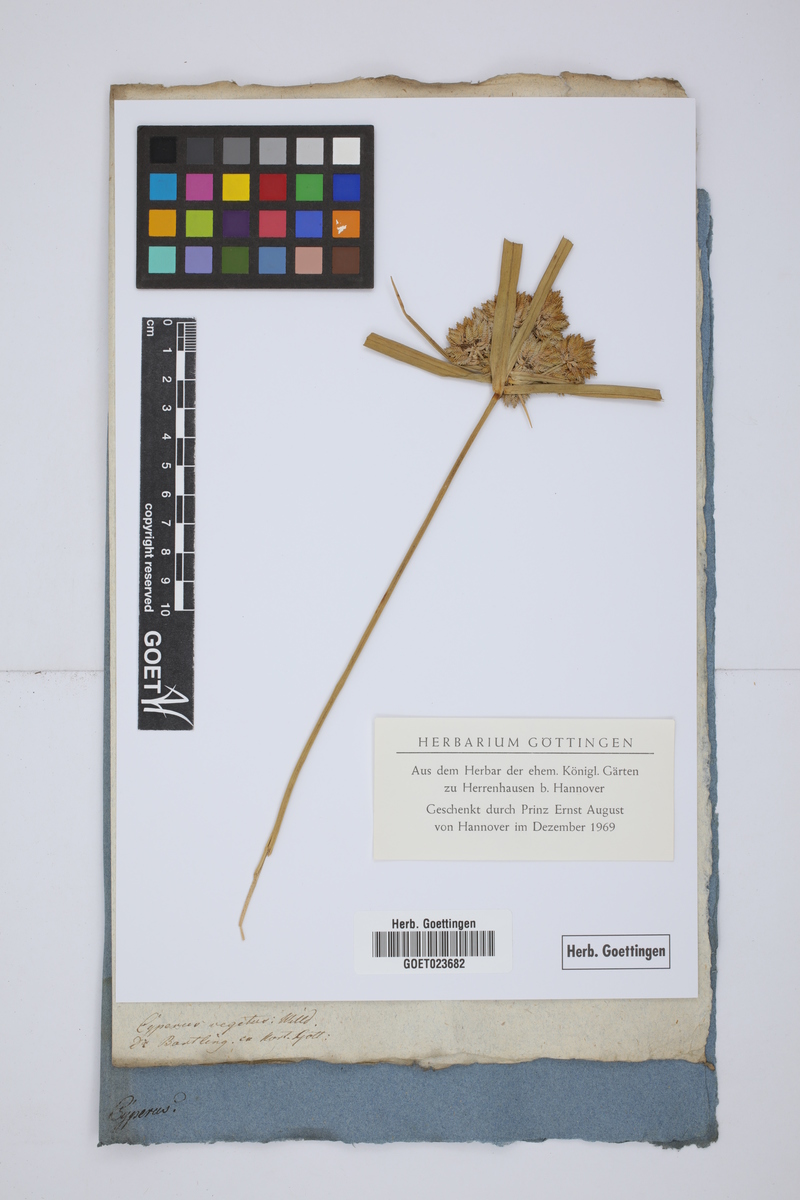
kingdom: Plantae
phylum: Tracheophyta
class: Liliopsida
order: Poales
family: Cyperaceae
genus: Cyperus
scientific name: Cyperus eragrostis
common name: Tall flatsedge
